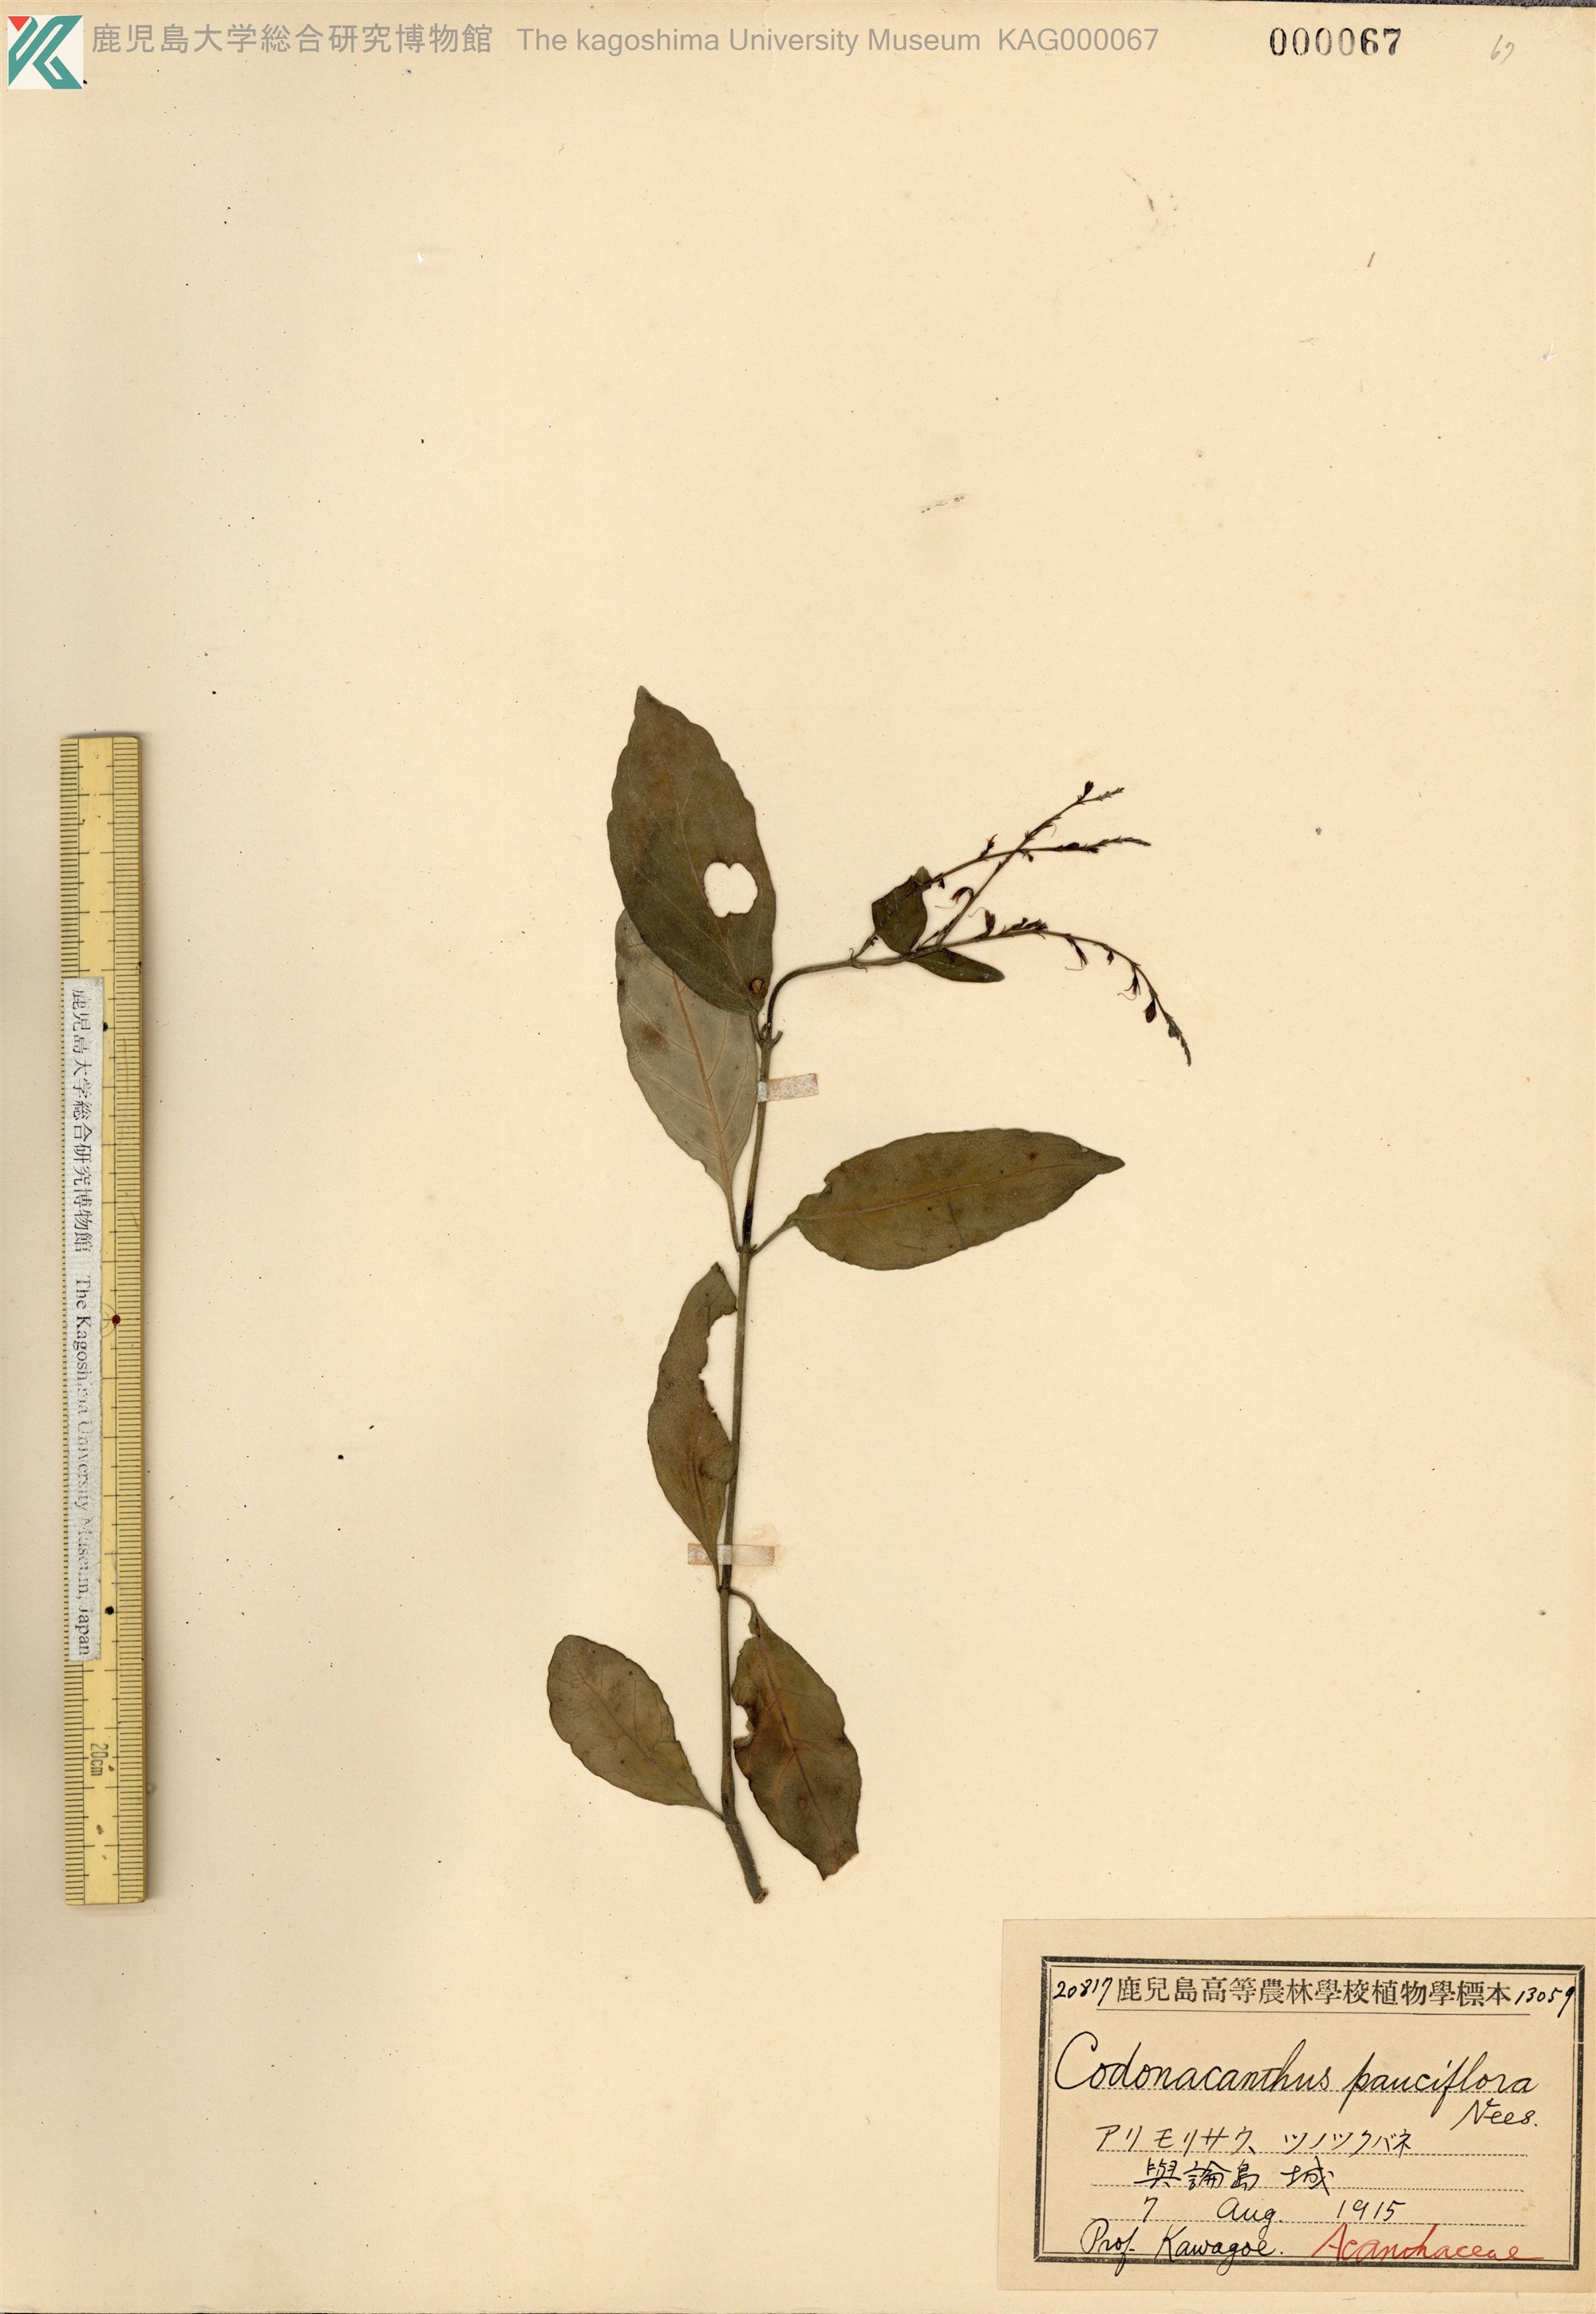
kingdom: Plantae
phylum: Tracheophyta
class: Magnoliopsida
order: Lamiales
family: Acanthaceae
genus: Codonacanthus
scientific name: Codonacanthus pauciflorus
